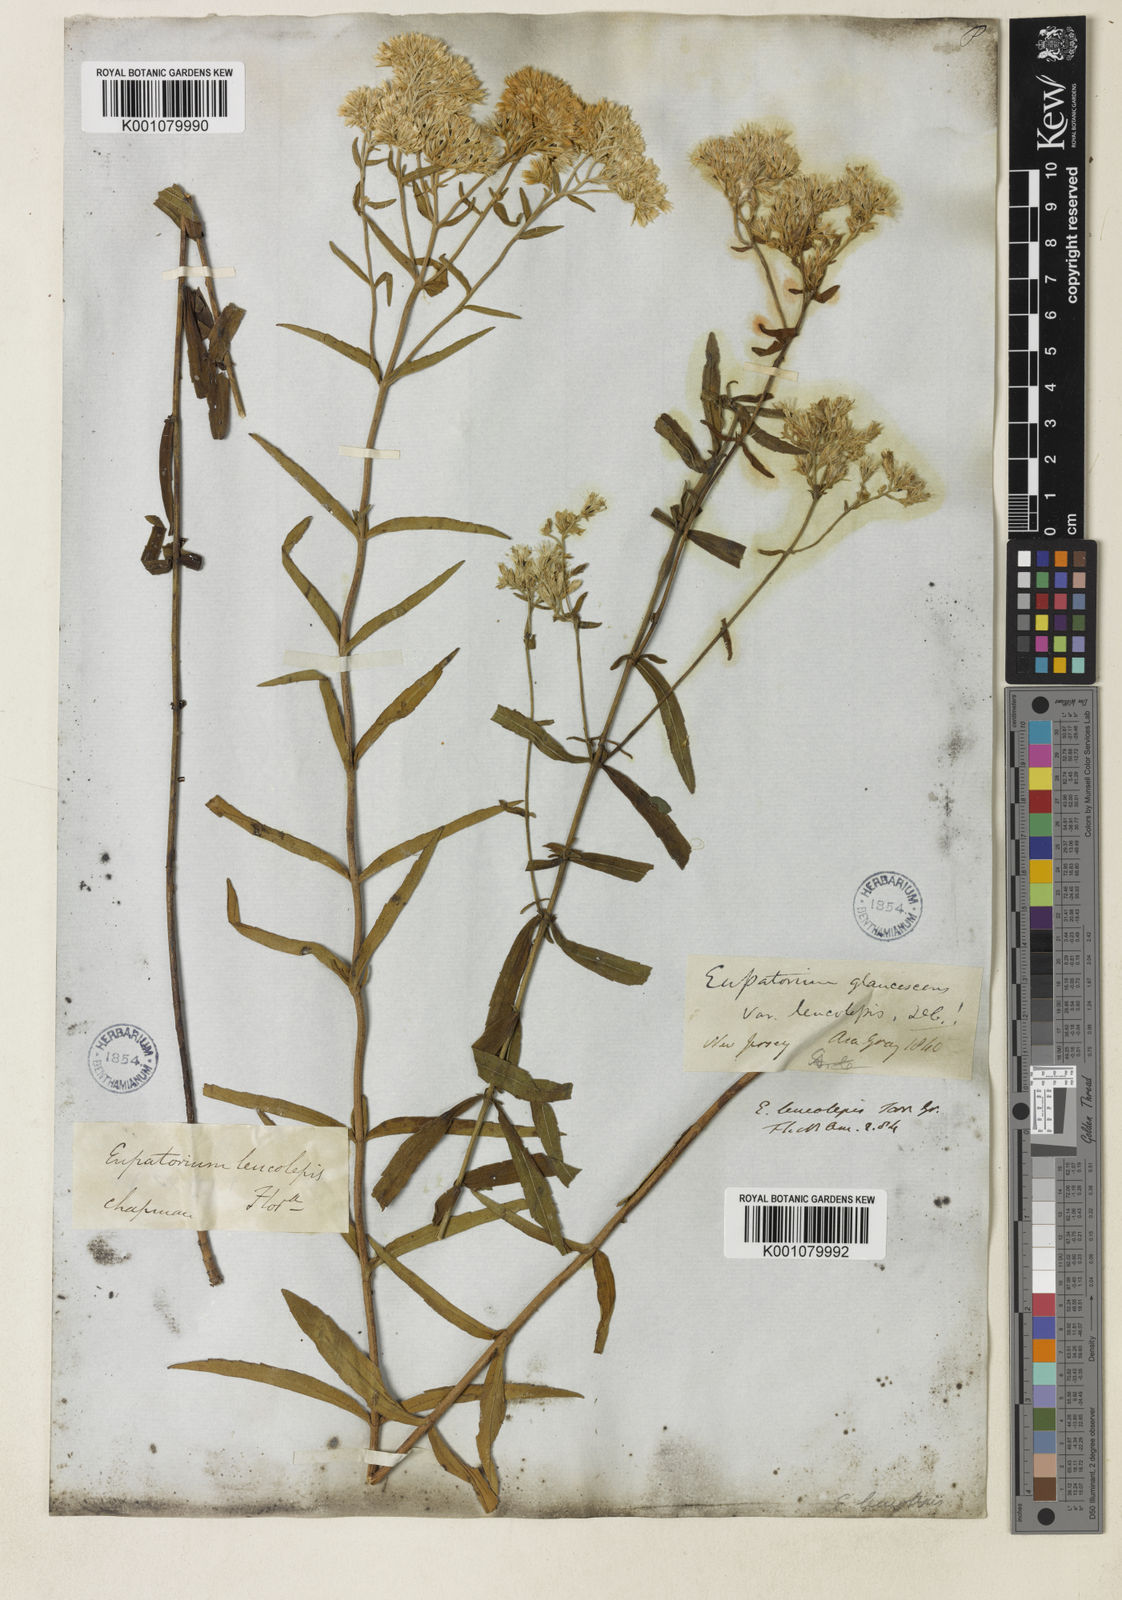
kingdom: Plantae
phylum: Tracheophyta
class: Magnoliopsida
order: Asterales
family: Asteraceae
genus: Eupatorium
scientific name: Eupatorium leucolepis
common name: Justiceweed
